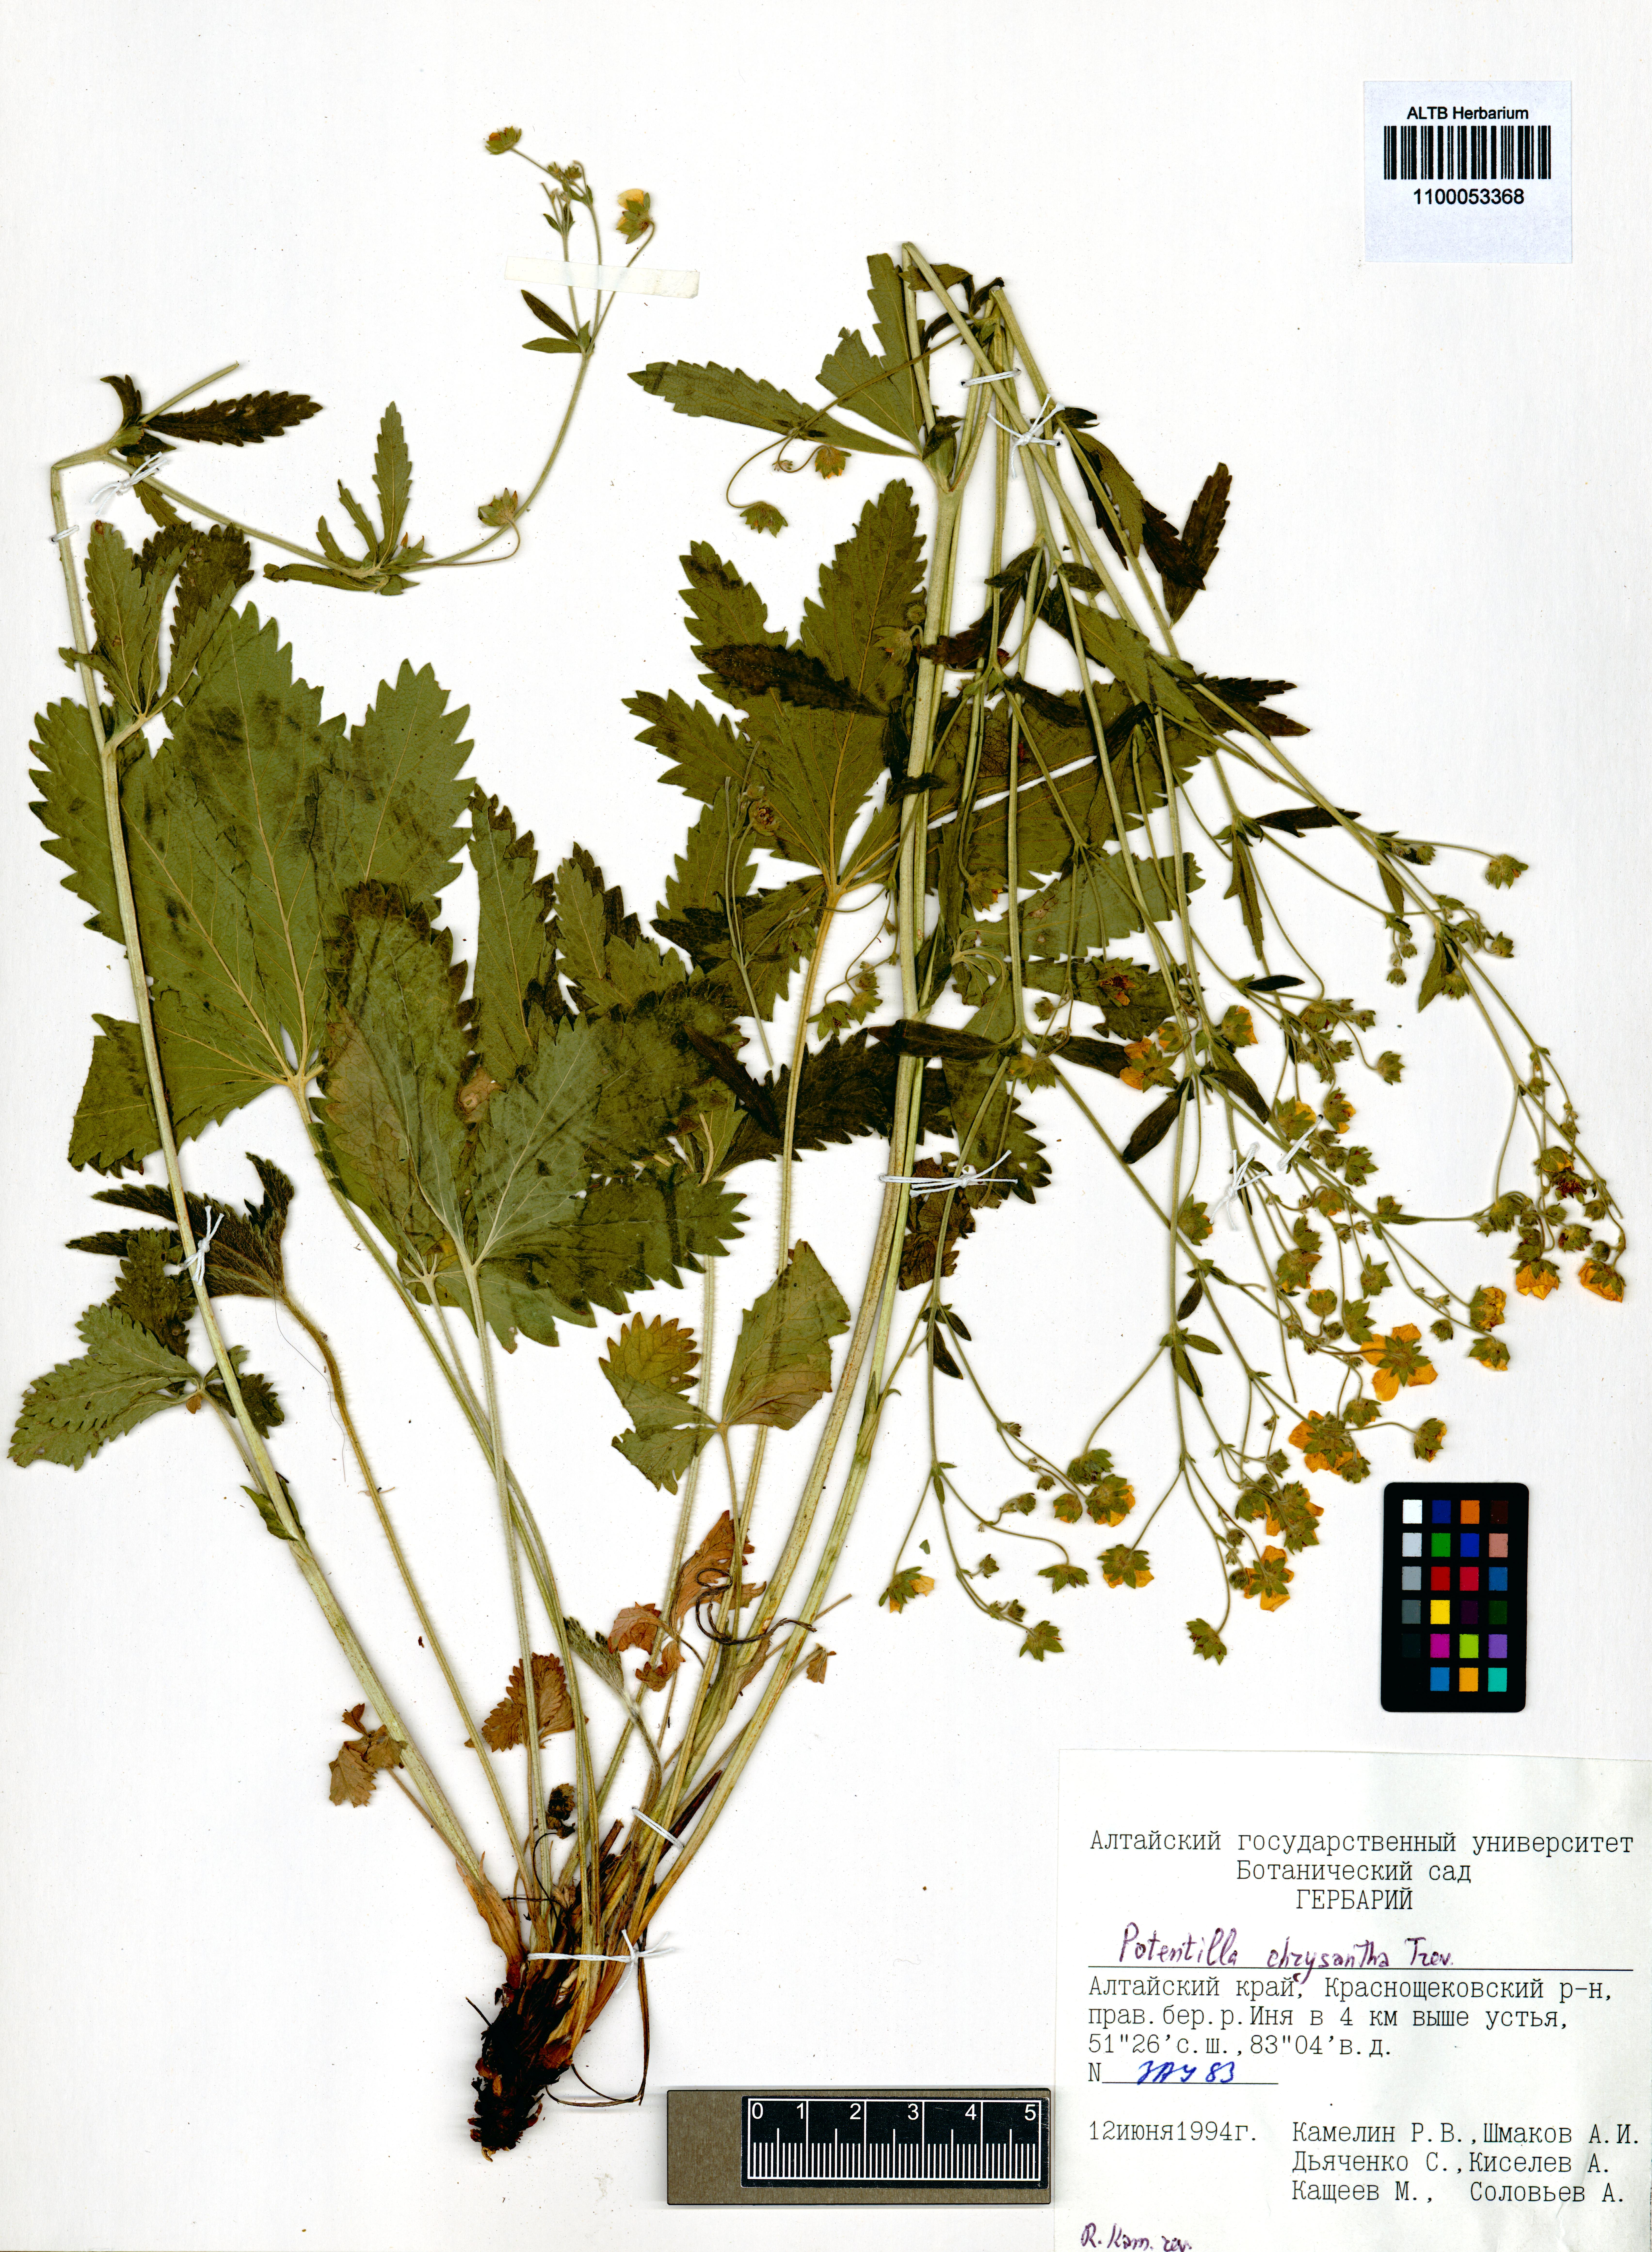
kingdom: Plantae
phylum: Tracheophyta
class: Magnoliopsida
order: Rosales
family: Rosaceae
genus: Potentilla
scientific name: Potentilla chrysantha
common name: Thuringian cinquefoil
